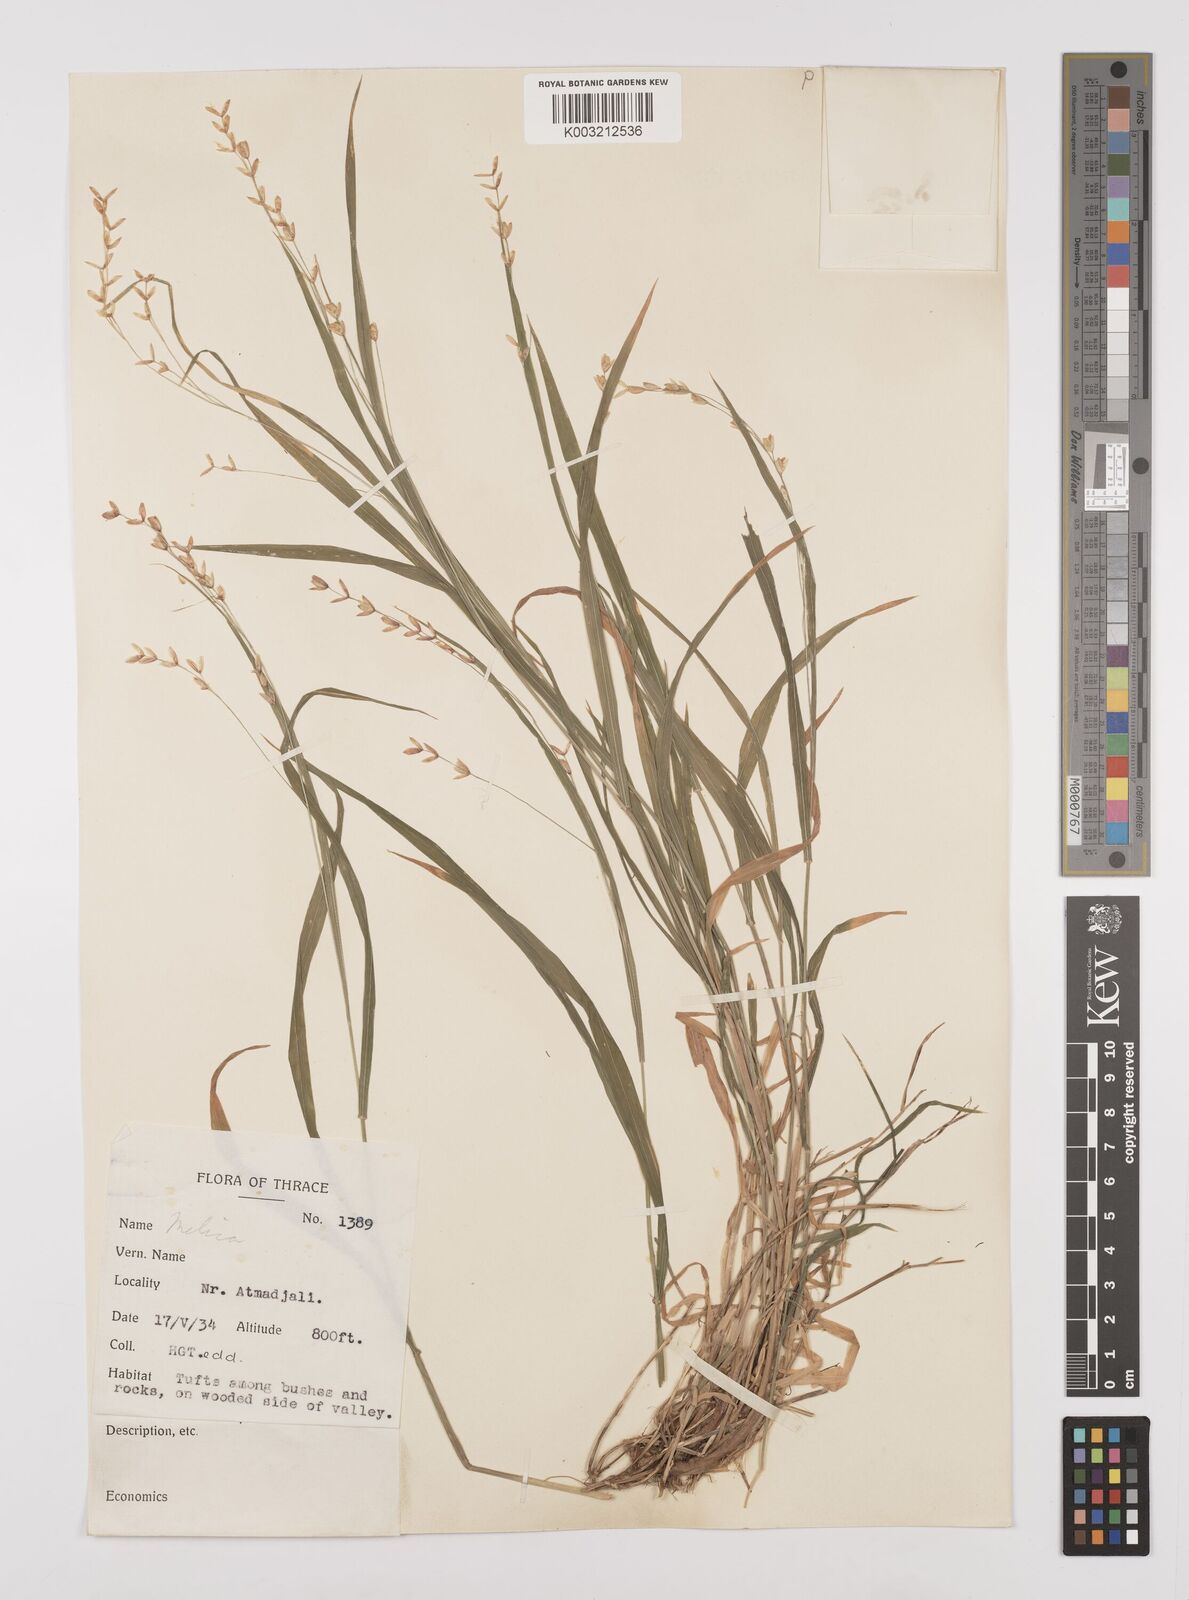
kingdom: Plantae
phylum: Tracheophyta
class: Liliopsida
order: Poales
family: Poaceae
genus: Melica
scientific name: Melica uniflora
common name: Wood melick
